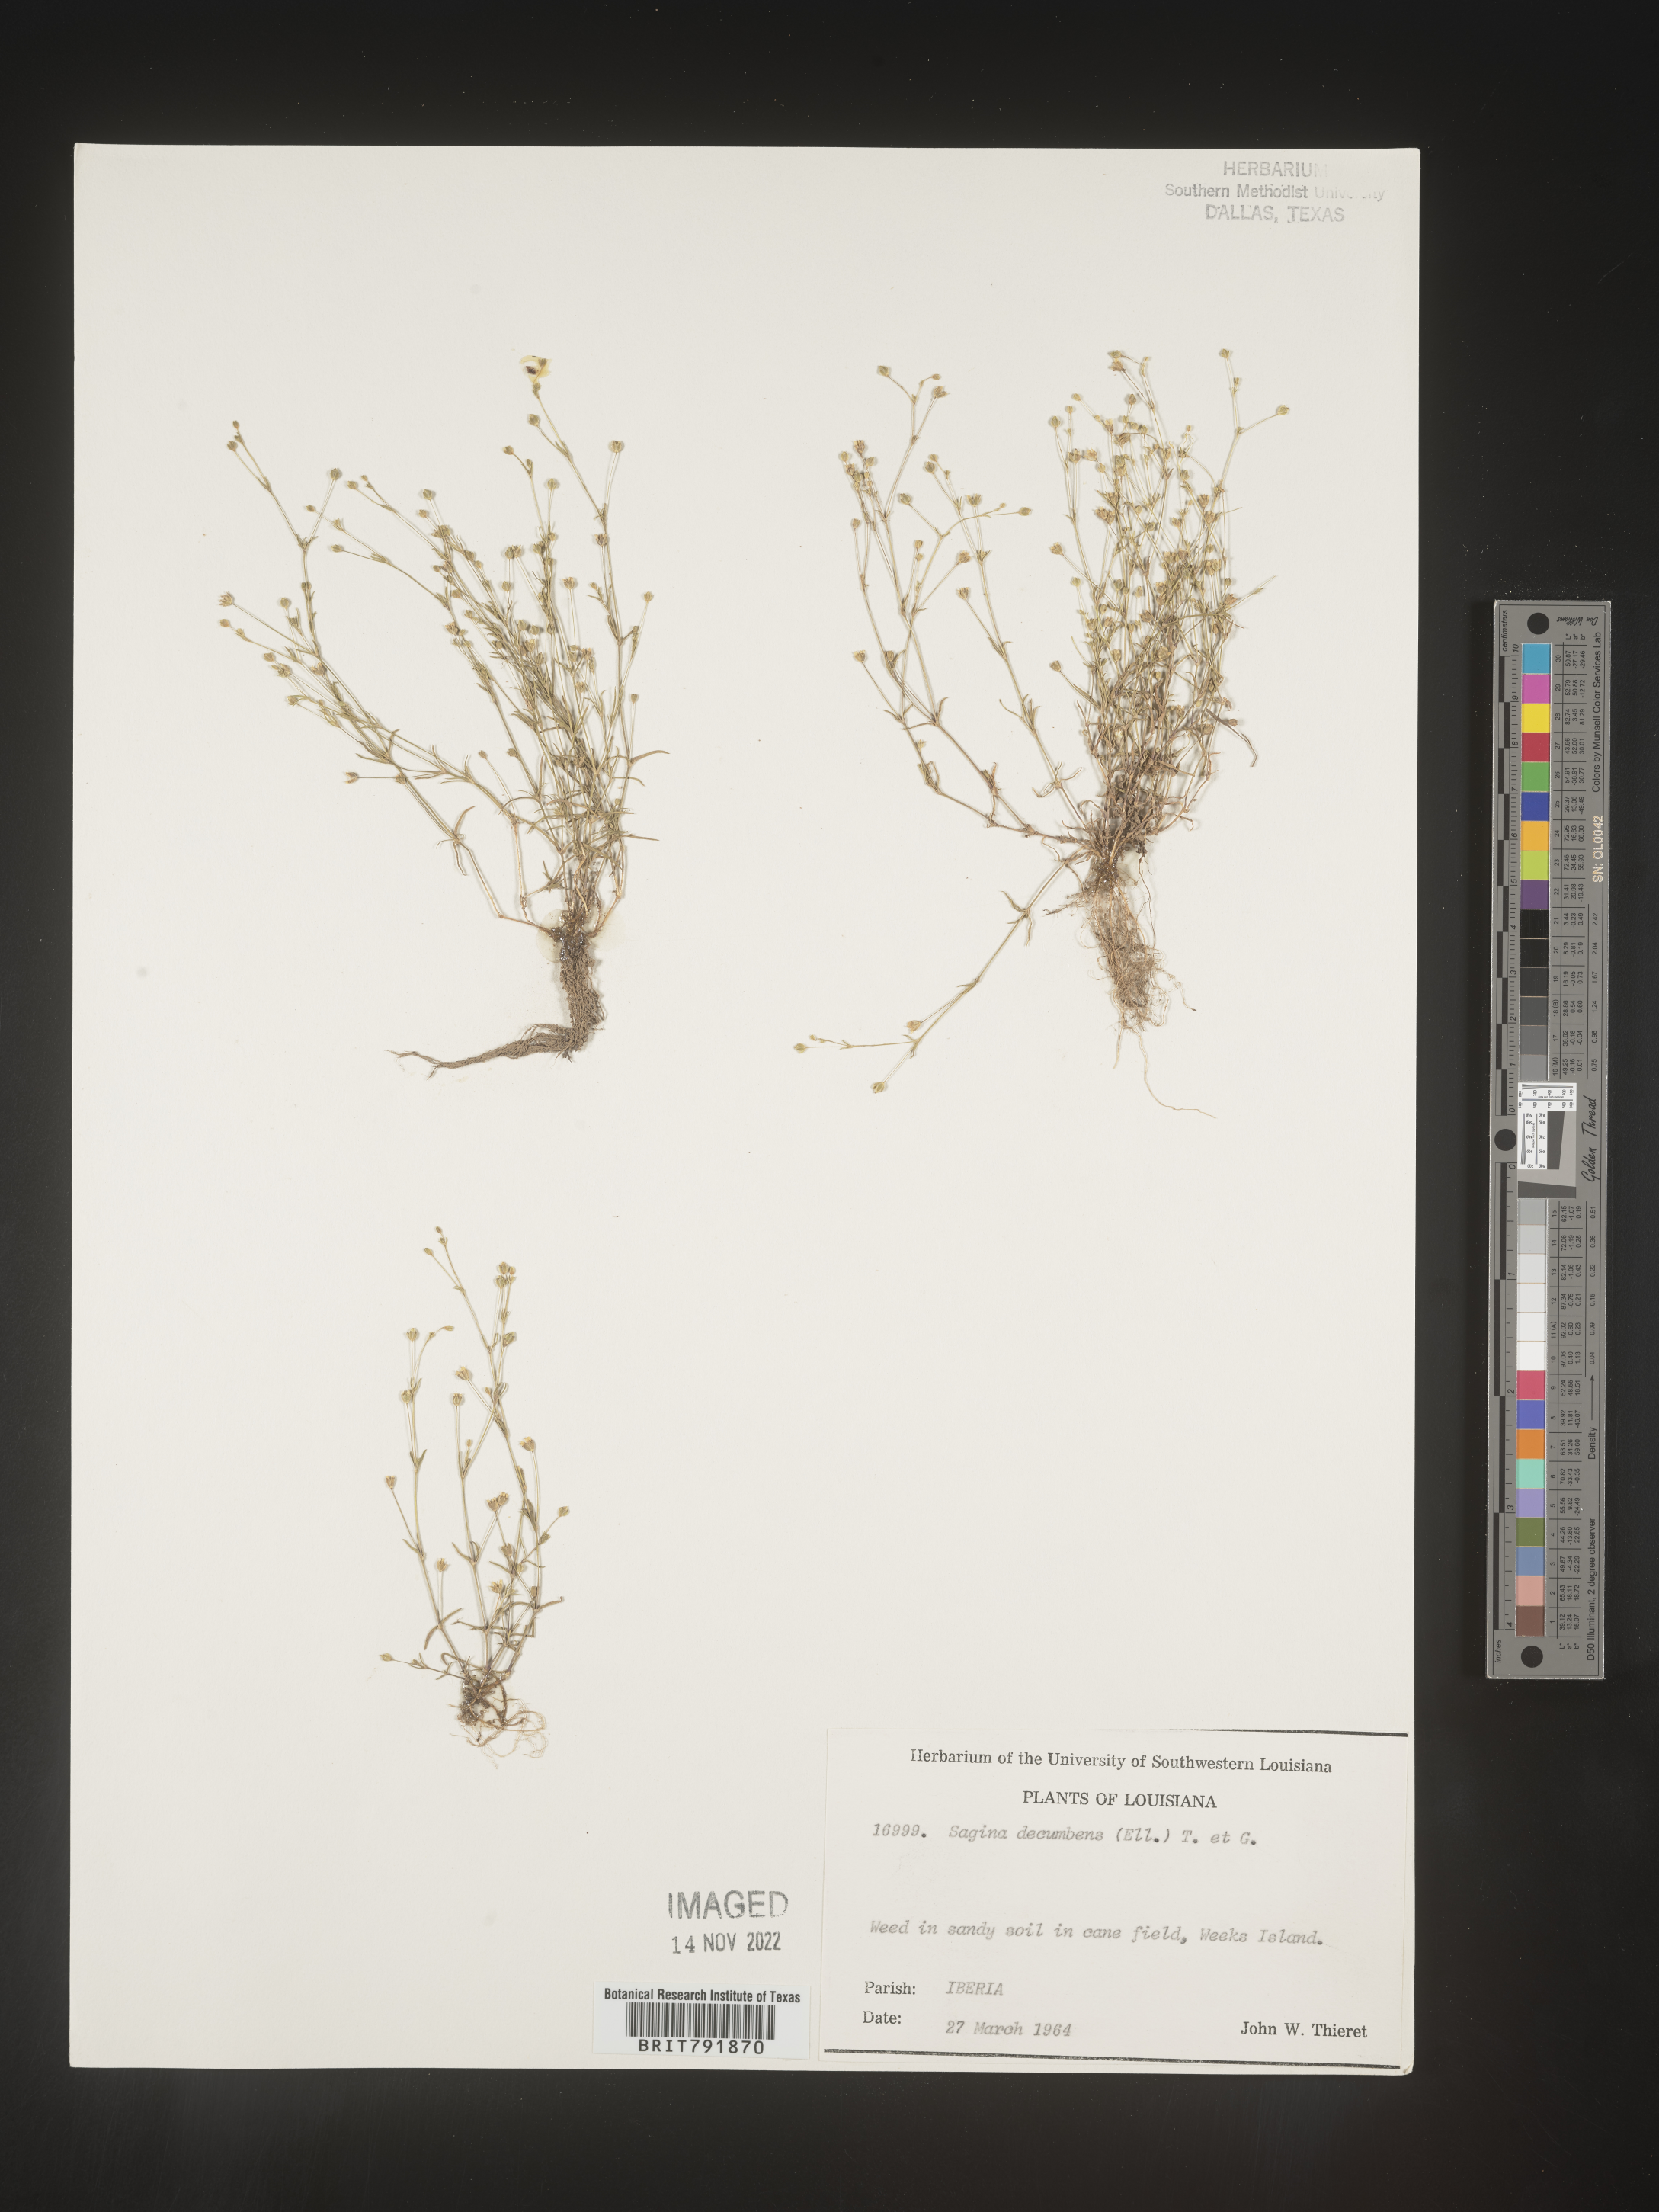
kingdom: Plantae
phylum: Tracheophyta
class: Magnoliopsida
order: Caryophyllales
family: Caryophyllaceae
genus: Sagina
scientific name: Sagina decumbens
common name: Decumbent pearlwort
